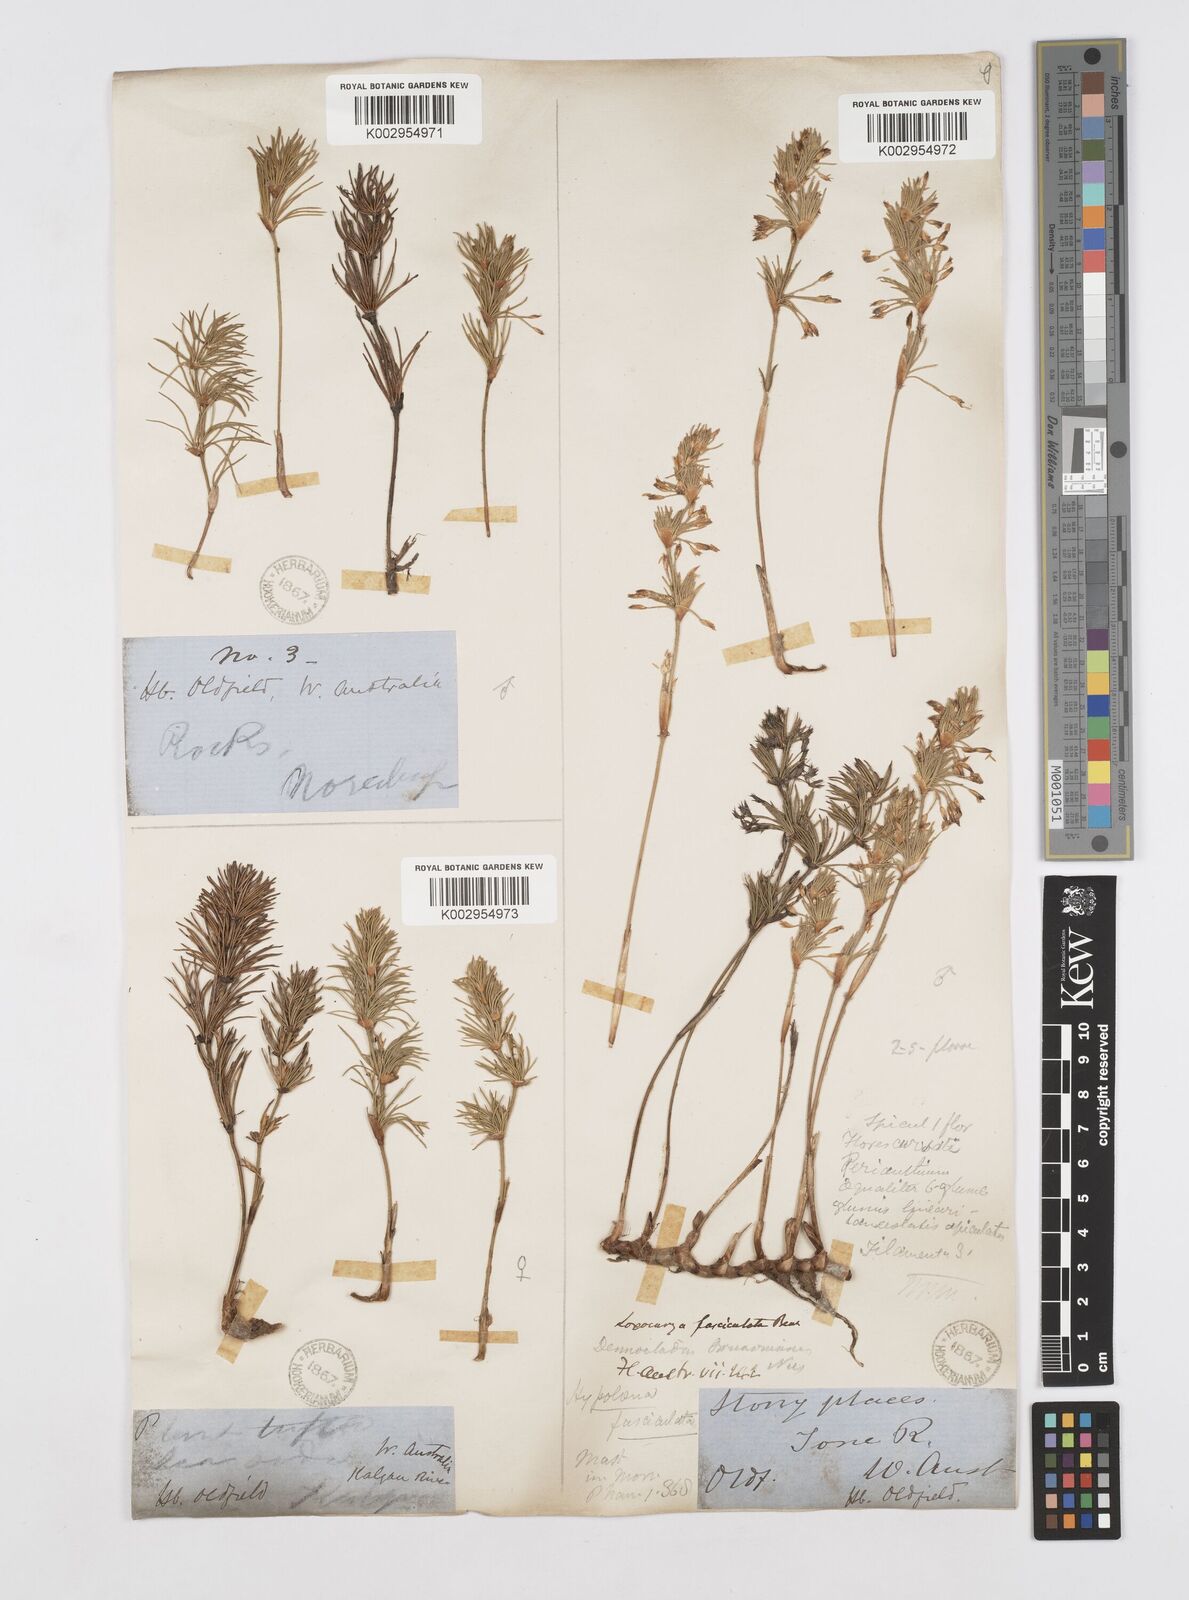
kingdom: Plantae
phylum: Tracheophyta
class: Liliopsida
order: Poales
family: Restionaceae
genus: Desmocladus
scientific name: Desmocladus fasciculatus
